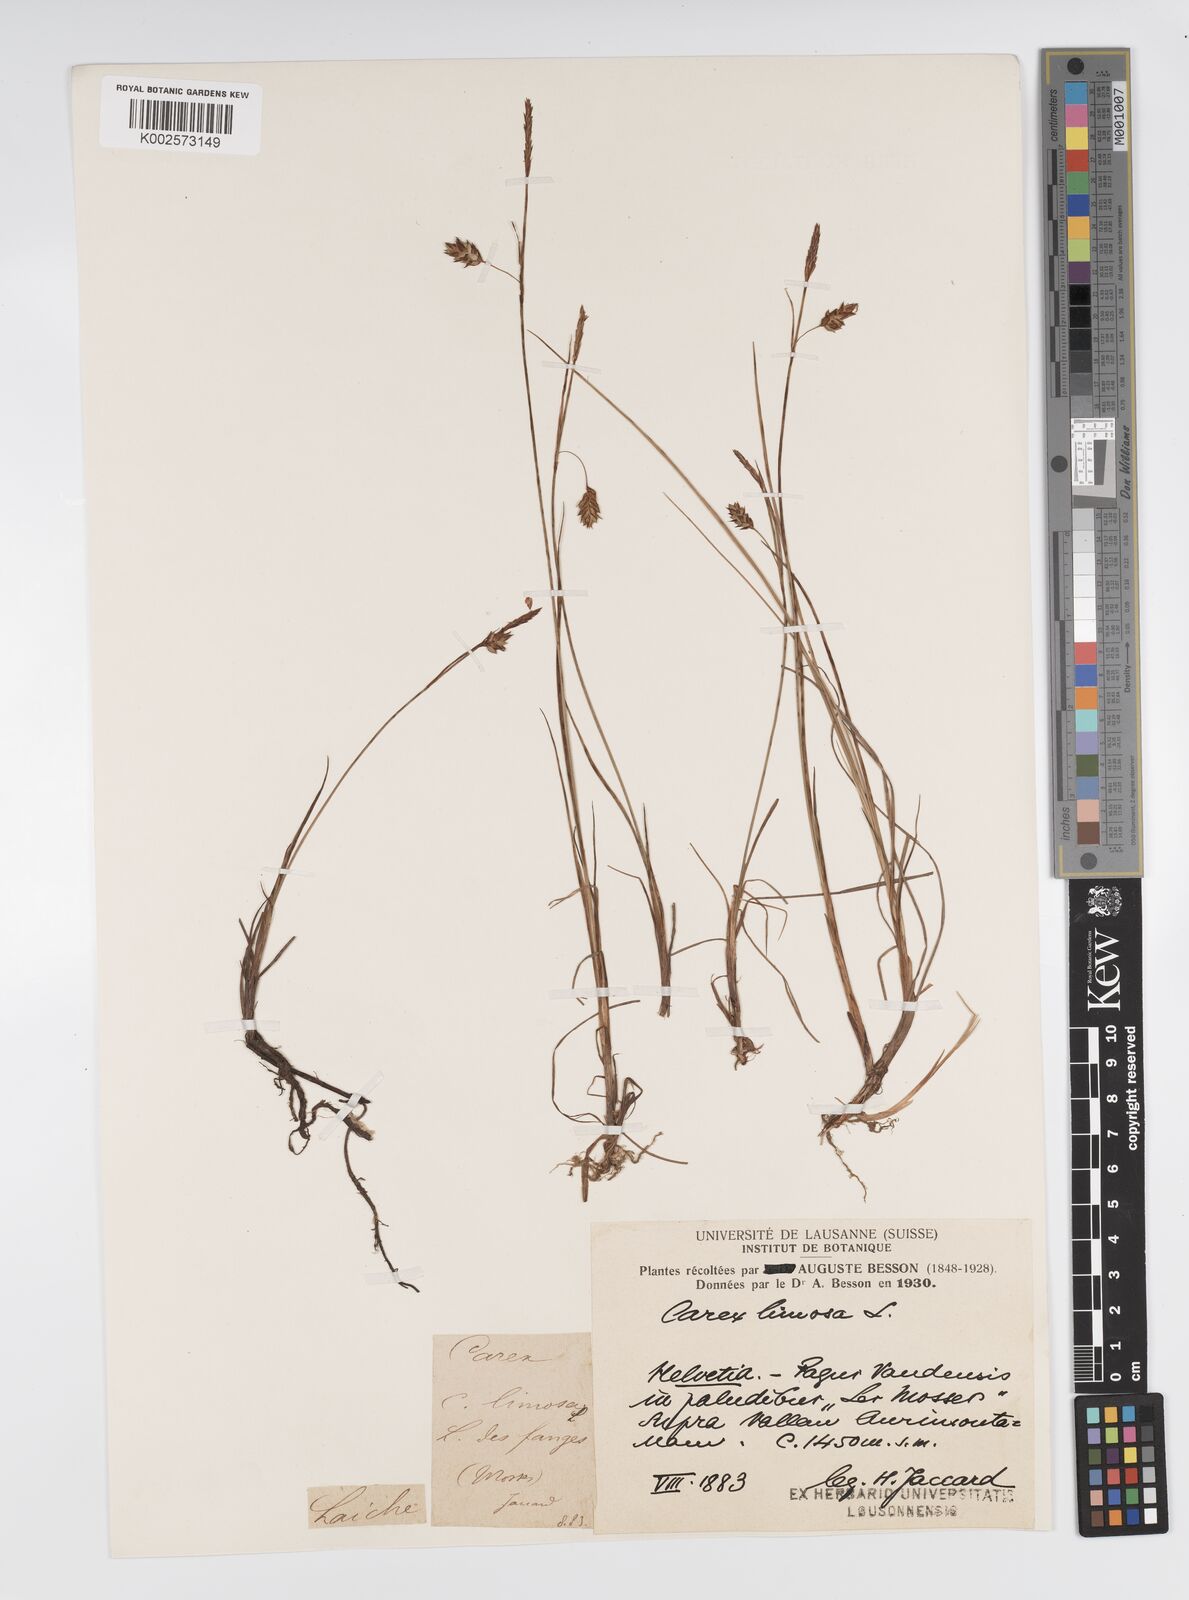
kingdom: Plantae
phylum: Tracheophyta
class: Liliopsida
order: Poales
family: Cyperaceae
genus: Carex
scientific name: Carex limosa
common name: Bog sedge
